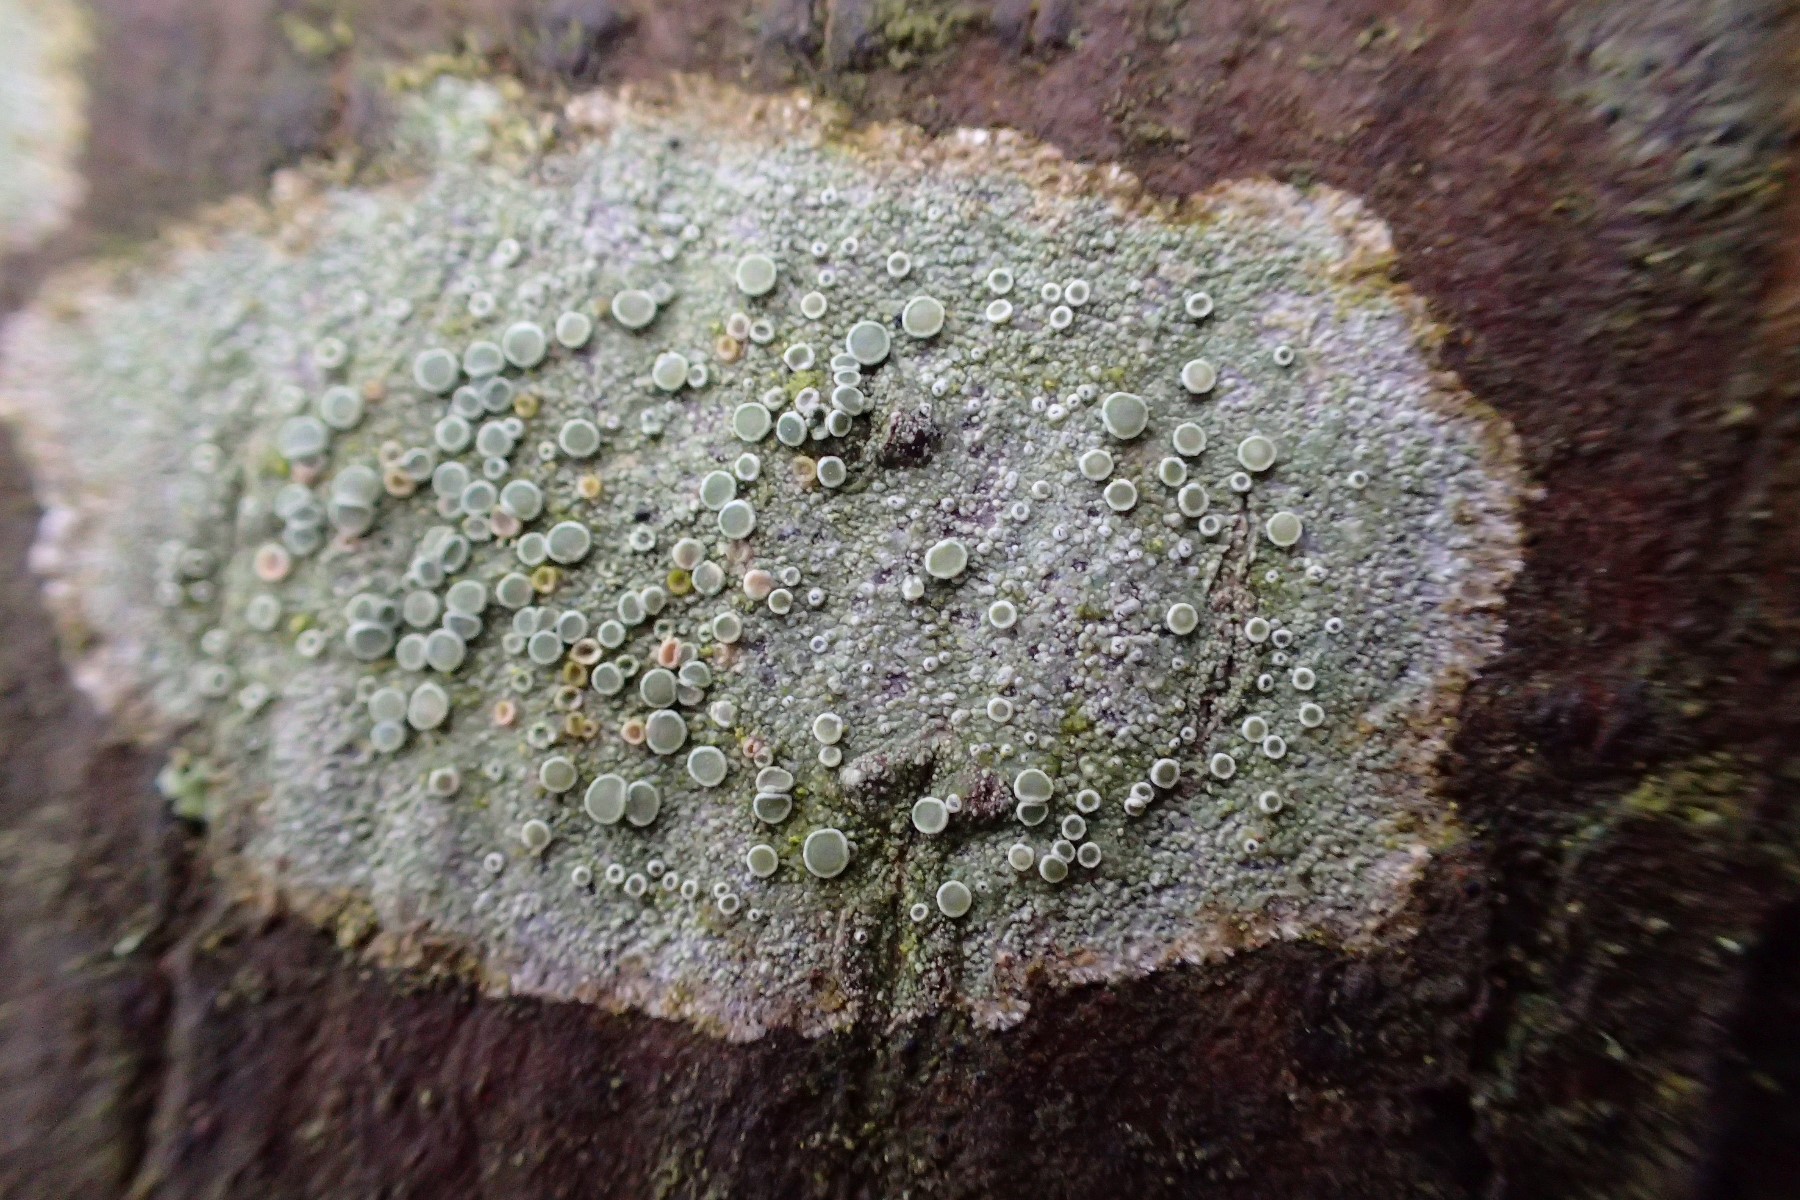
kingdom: Fungi
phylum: Ascomycota
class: Lecanoromycetes
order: Lecanorales
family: Lecanoraceae
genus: Lecanora
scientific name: Lecanora chlarotera
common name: brun kantskivelav
